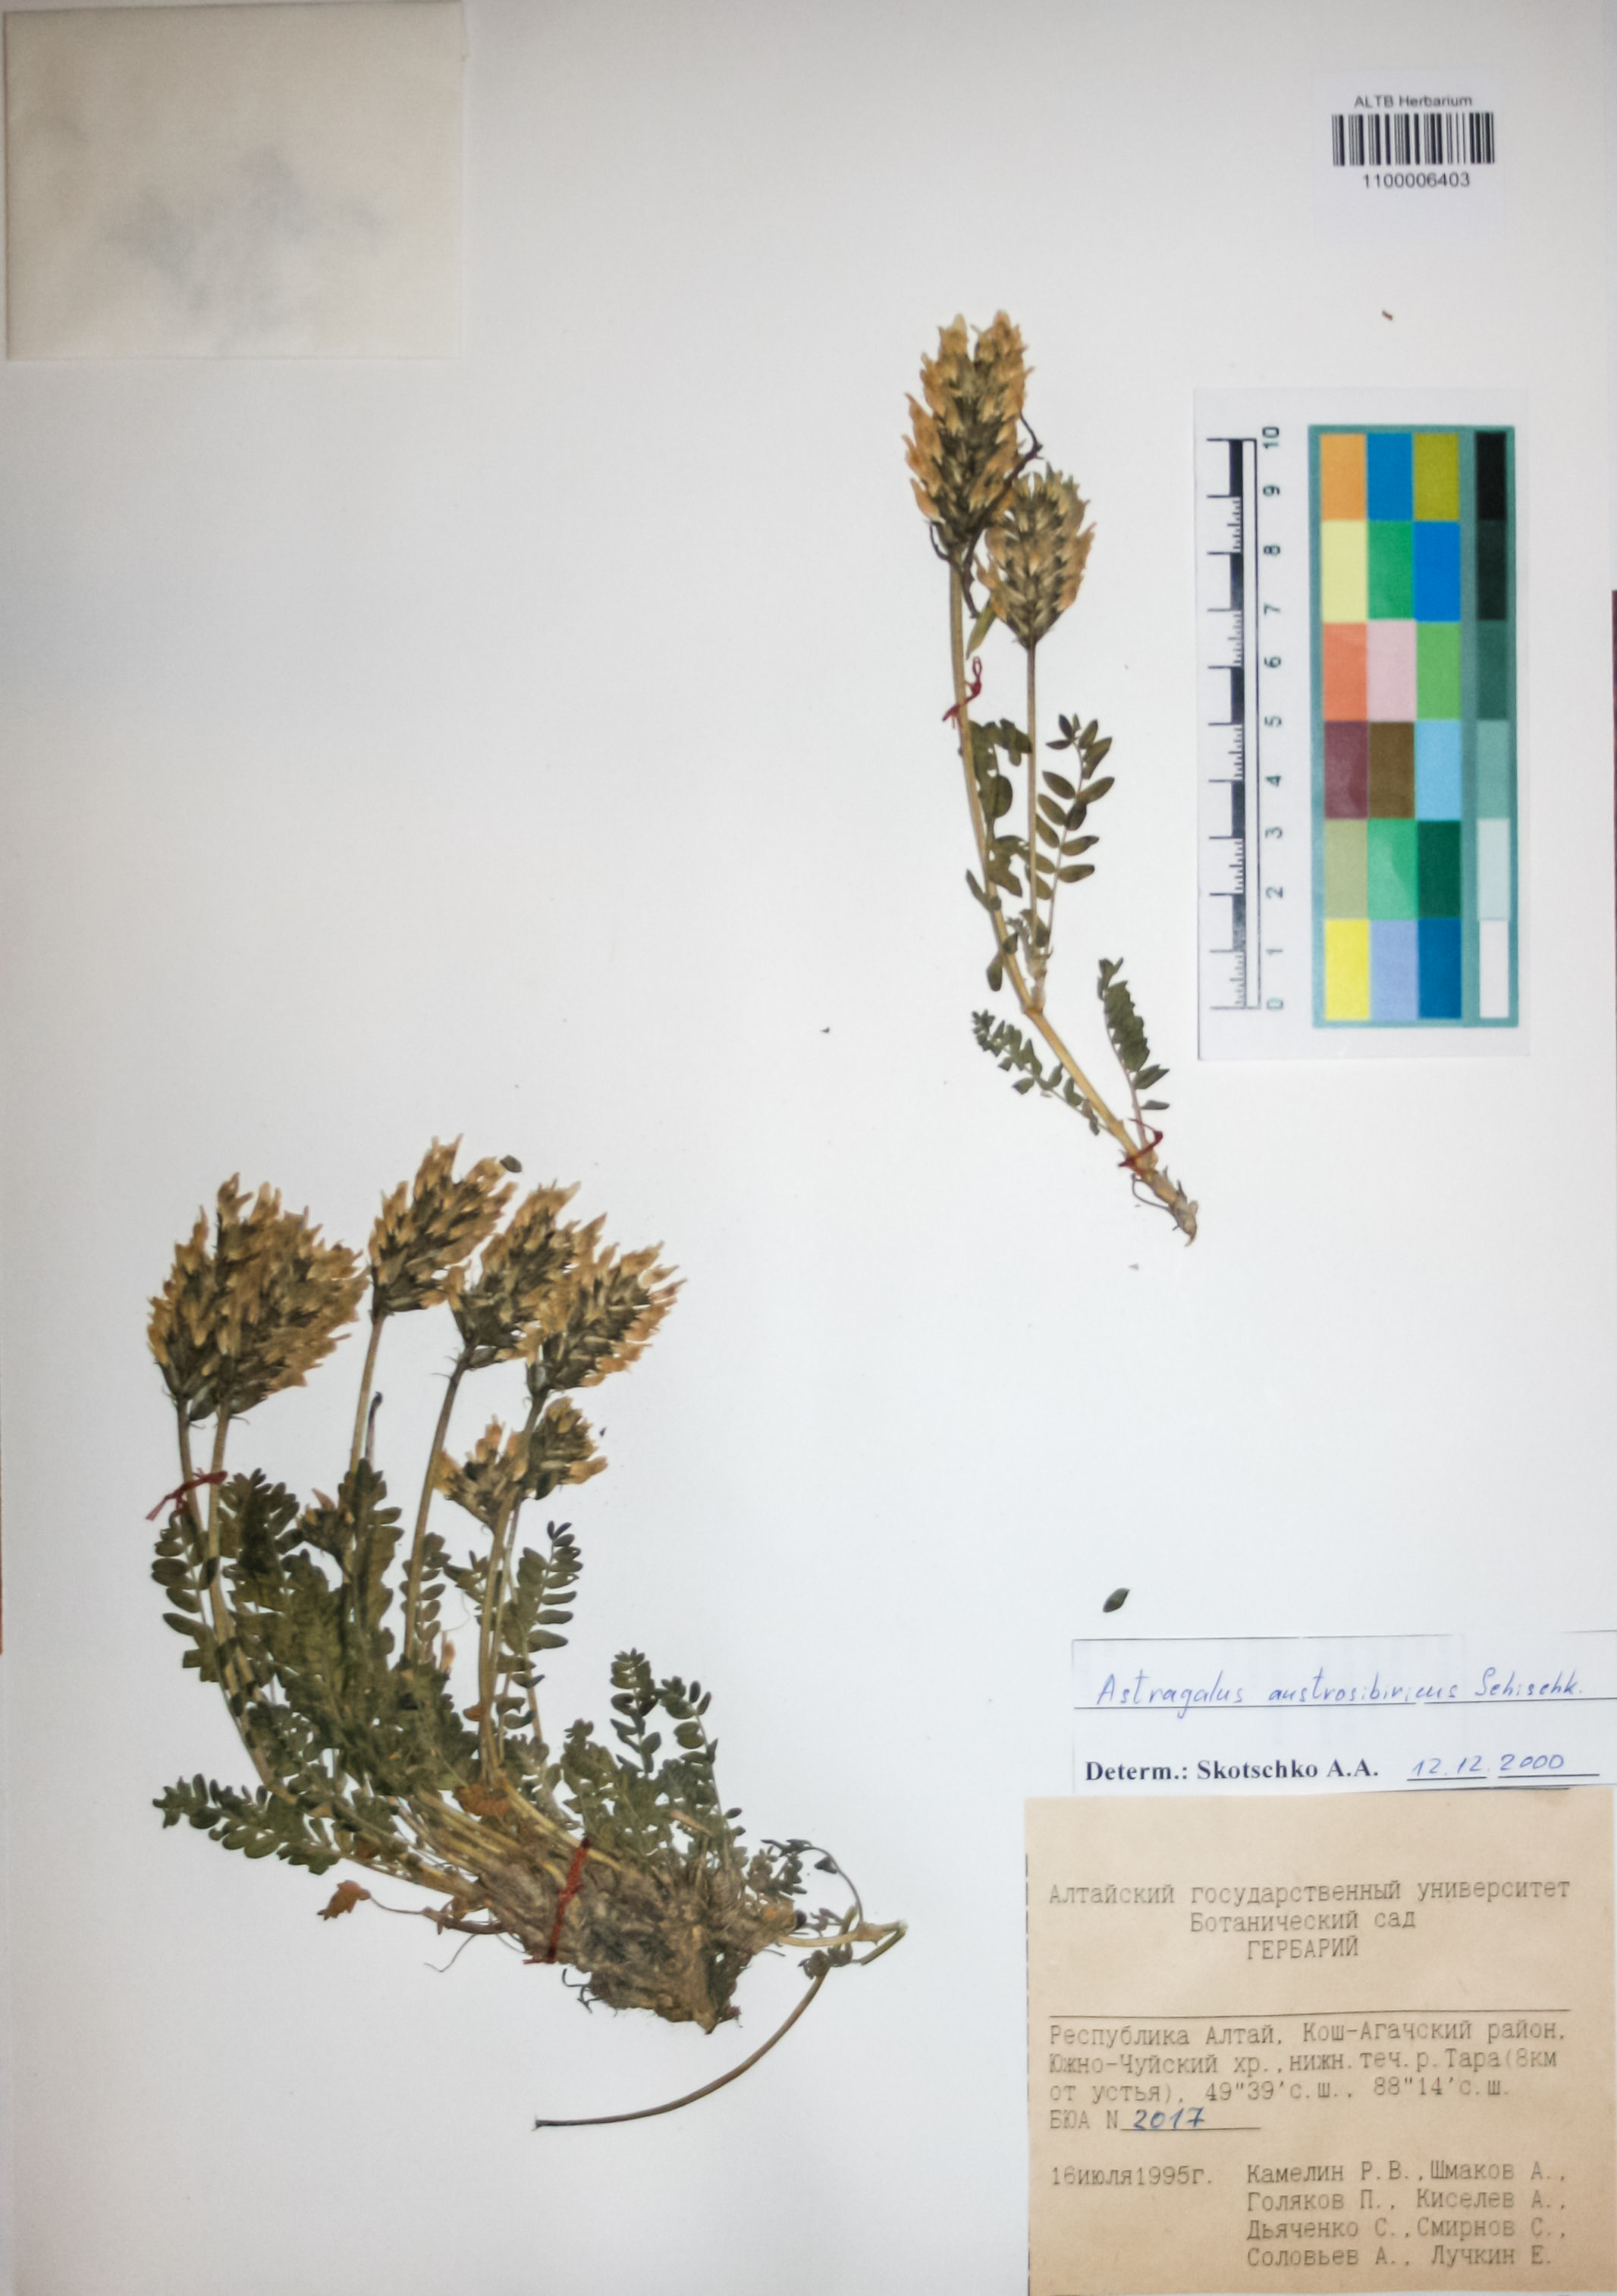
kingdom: Plantae
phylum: Tracheophyta
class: Magnoliopsida
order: Fabales
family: Fabaceae
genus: Astragalus
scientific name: Astragalus laxmannii
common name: Laxmann's milk-vetch
